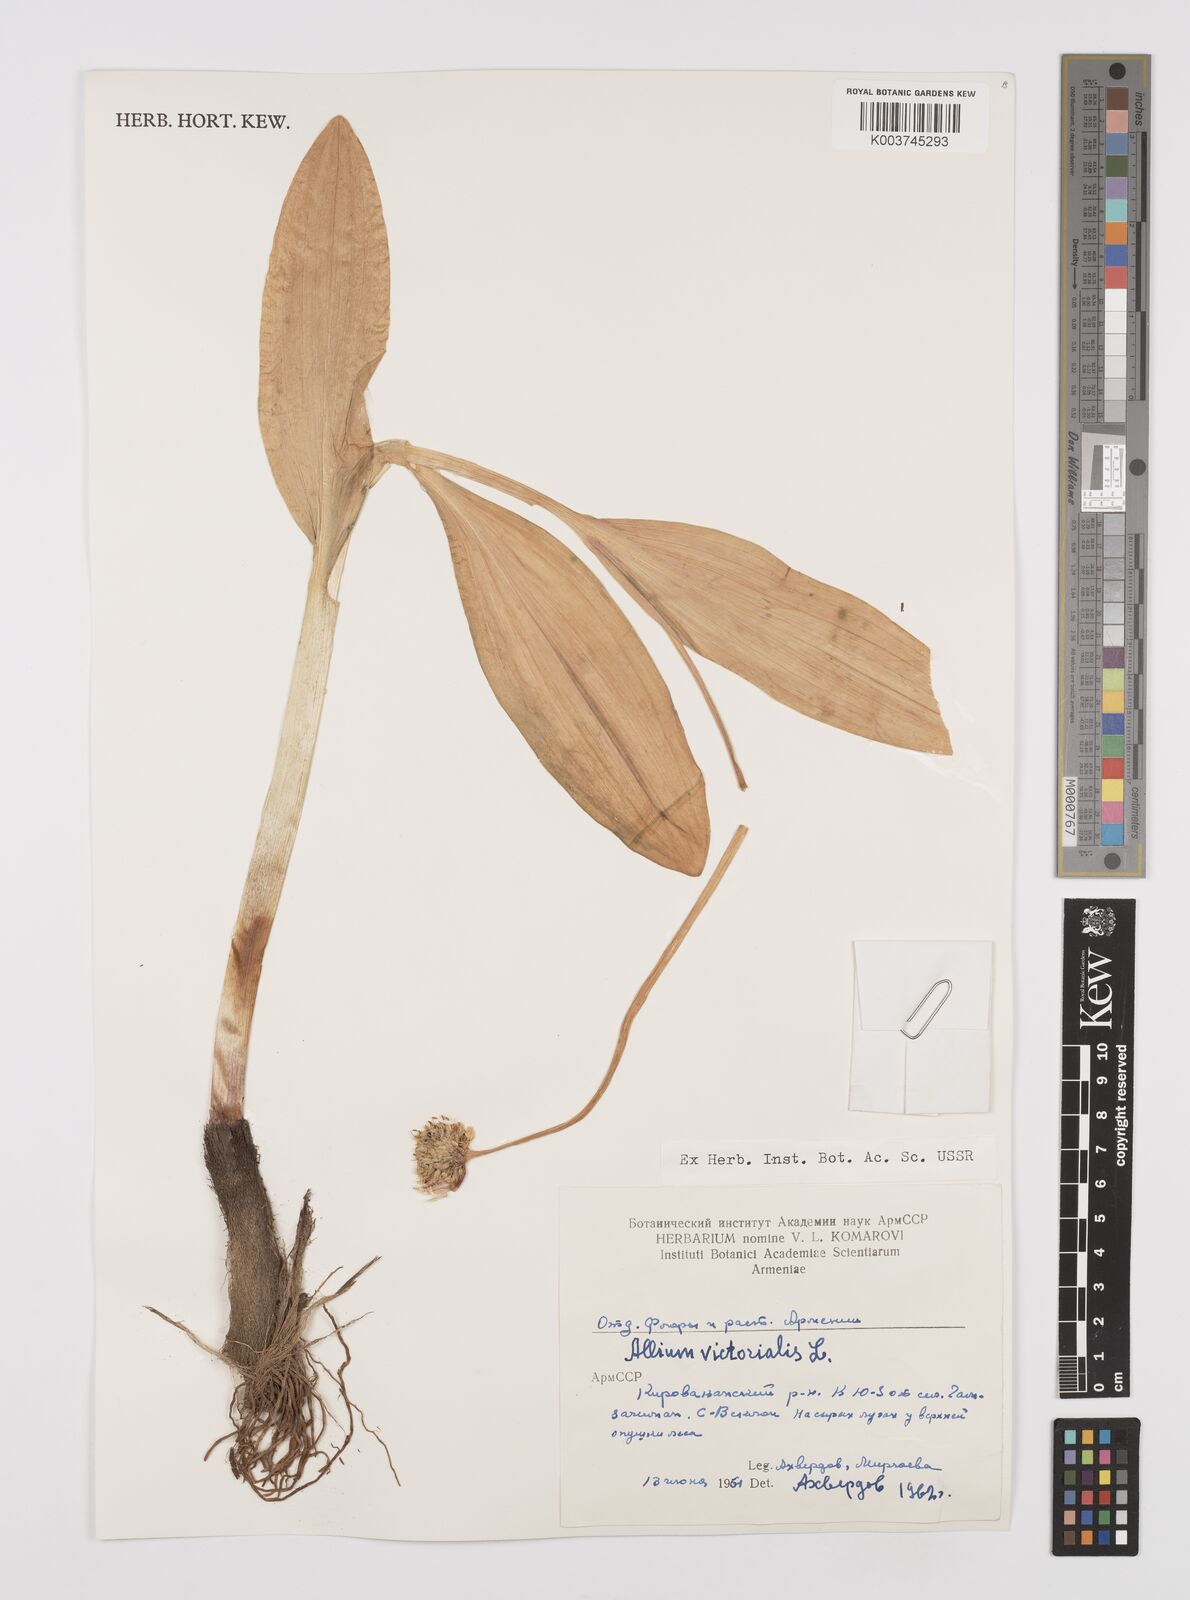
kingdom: Plantae
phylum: Tracheophyta
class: Liliopsida
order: Asparagales
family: Amaryllidaceae
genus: Allium
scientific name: Allium victorialis
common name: Alpine leek
